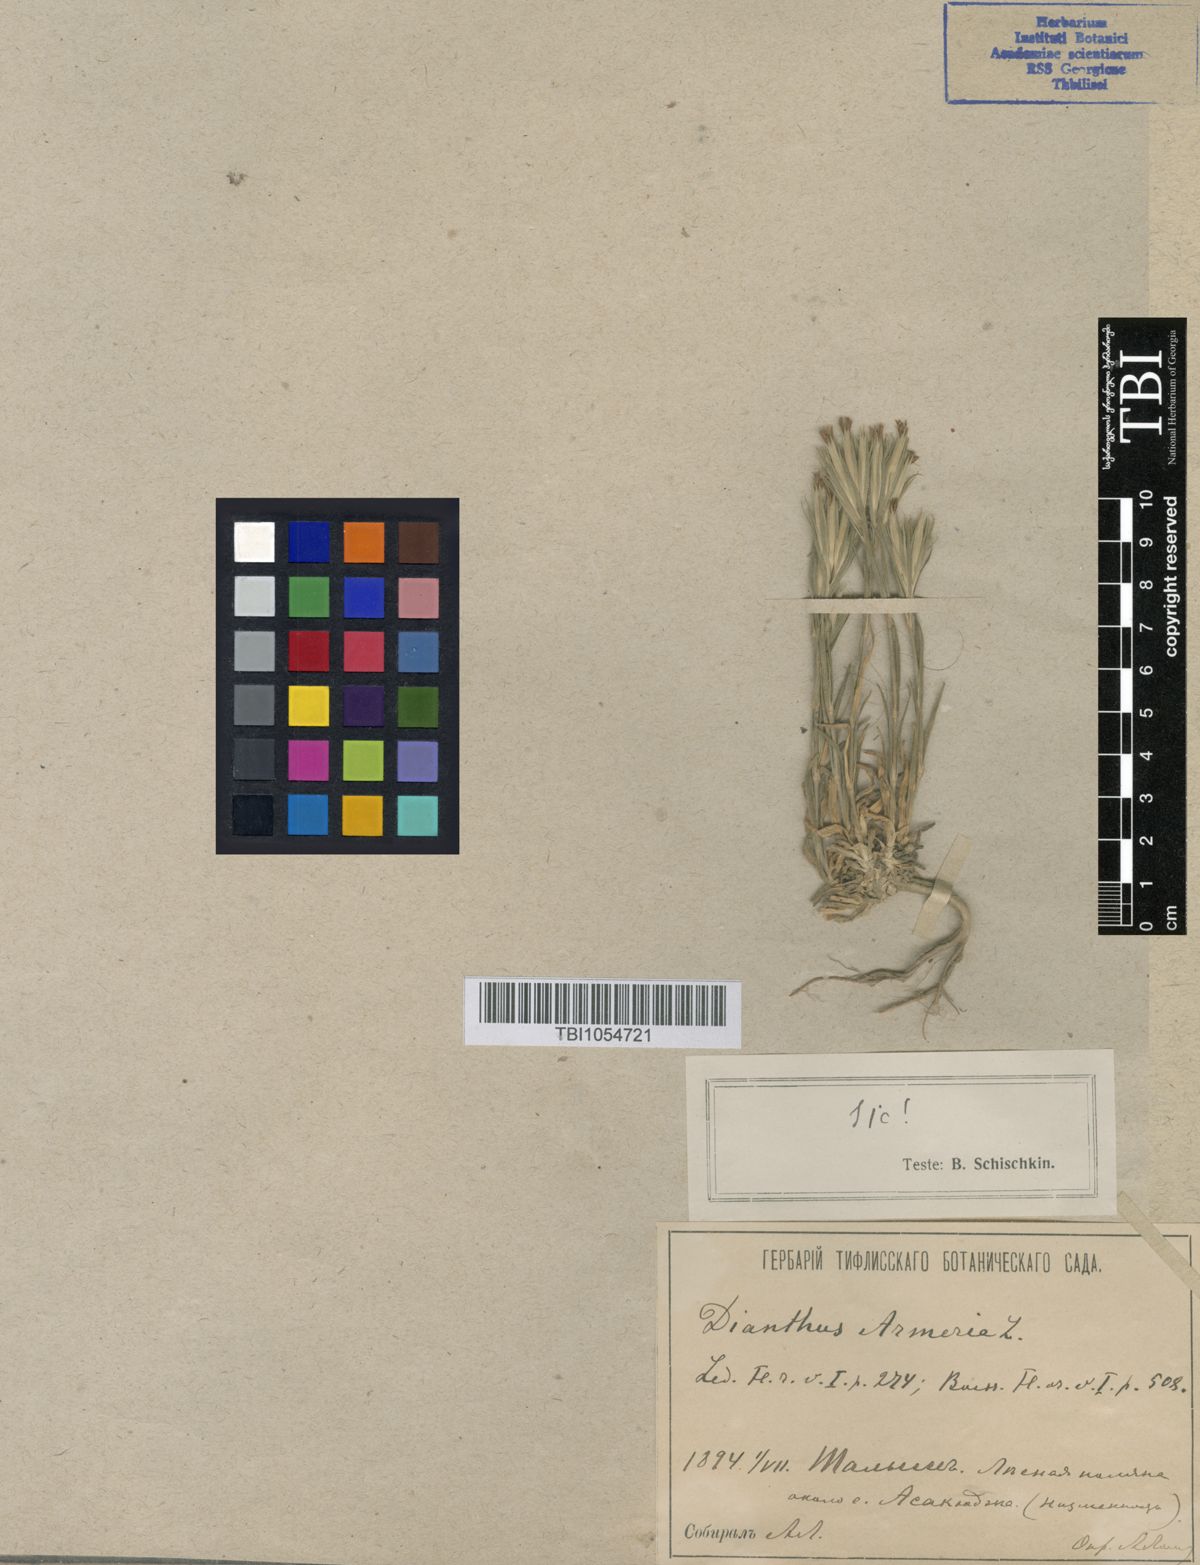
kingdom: Plantae
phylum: Tracheophyta
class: Magnoliopsida
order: Caryophyllales
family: Caryophyllaceae
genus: Dianthus
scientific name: Dianthus armeria
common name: Deptford pink
